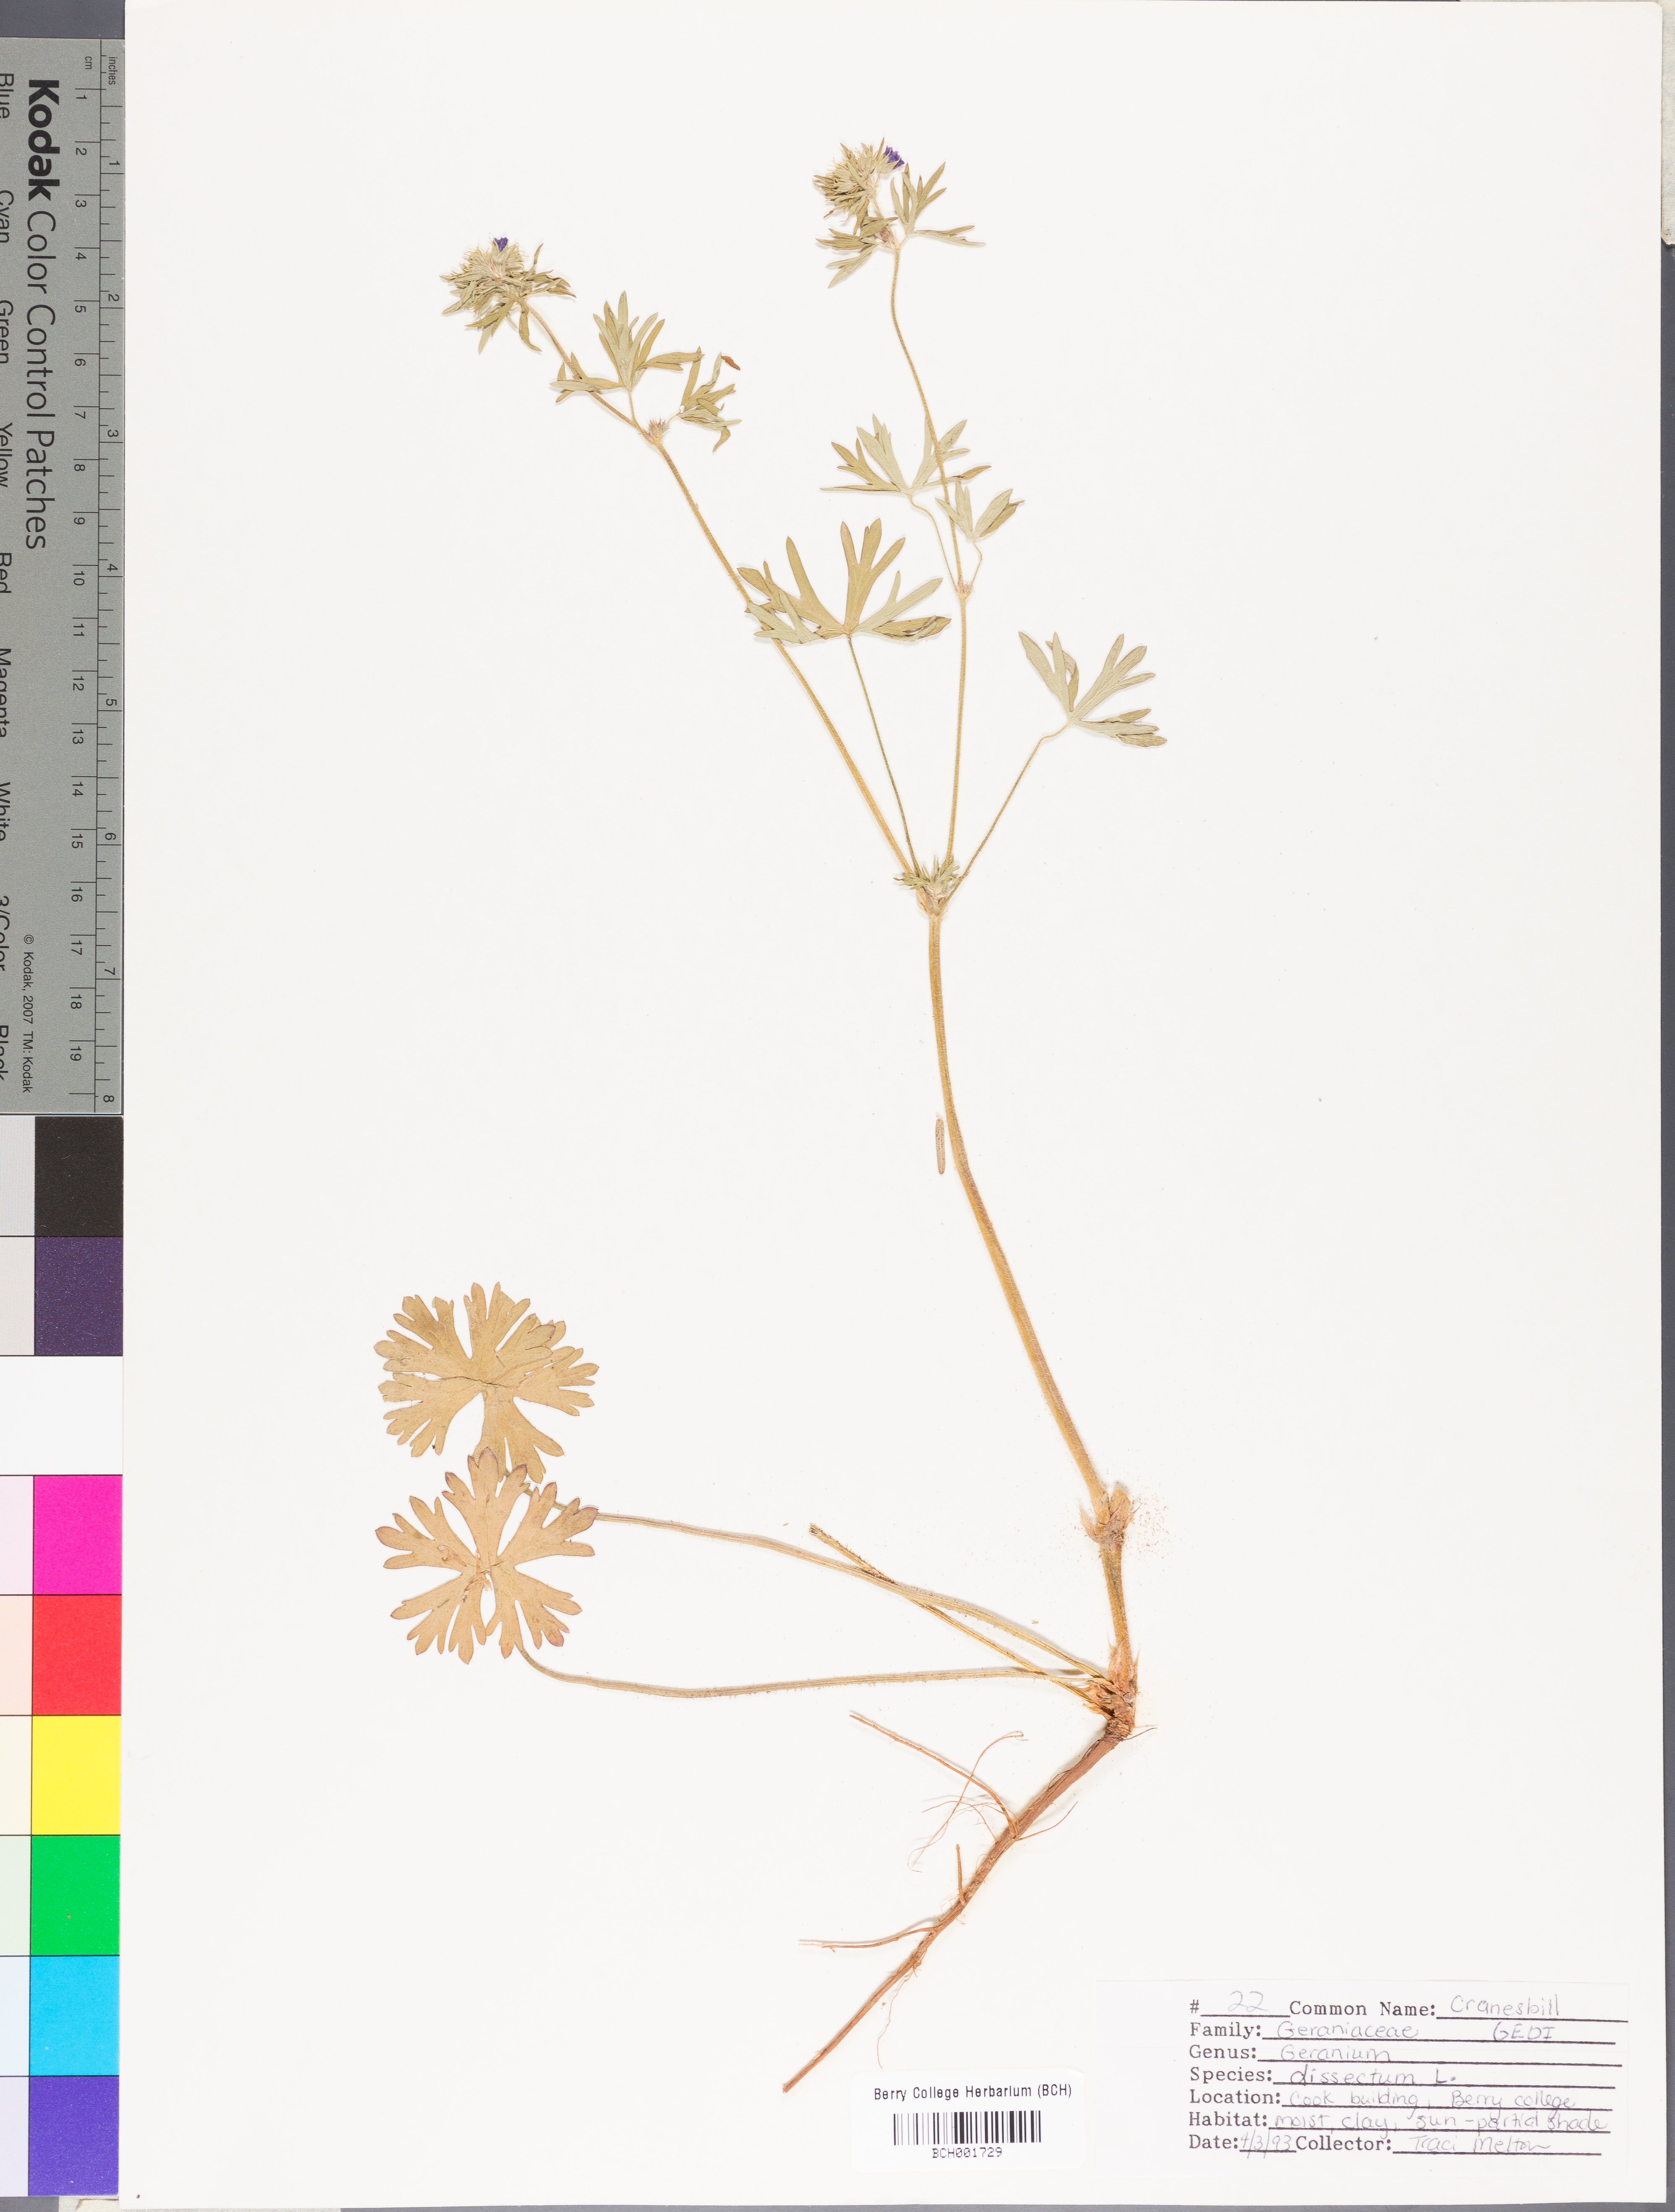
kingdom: Plantae
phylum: Tracheophyta
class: Magnoliopsida
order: Geraniales
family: Geraniaceae
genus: Geranium
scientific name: Geranium dissectum
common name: Cut-leaved crane's-bill
